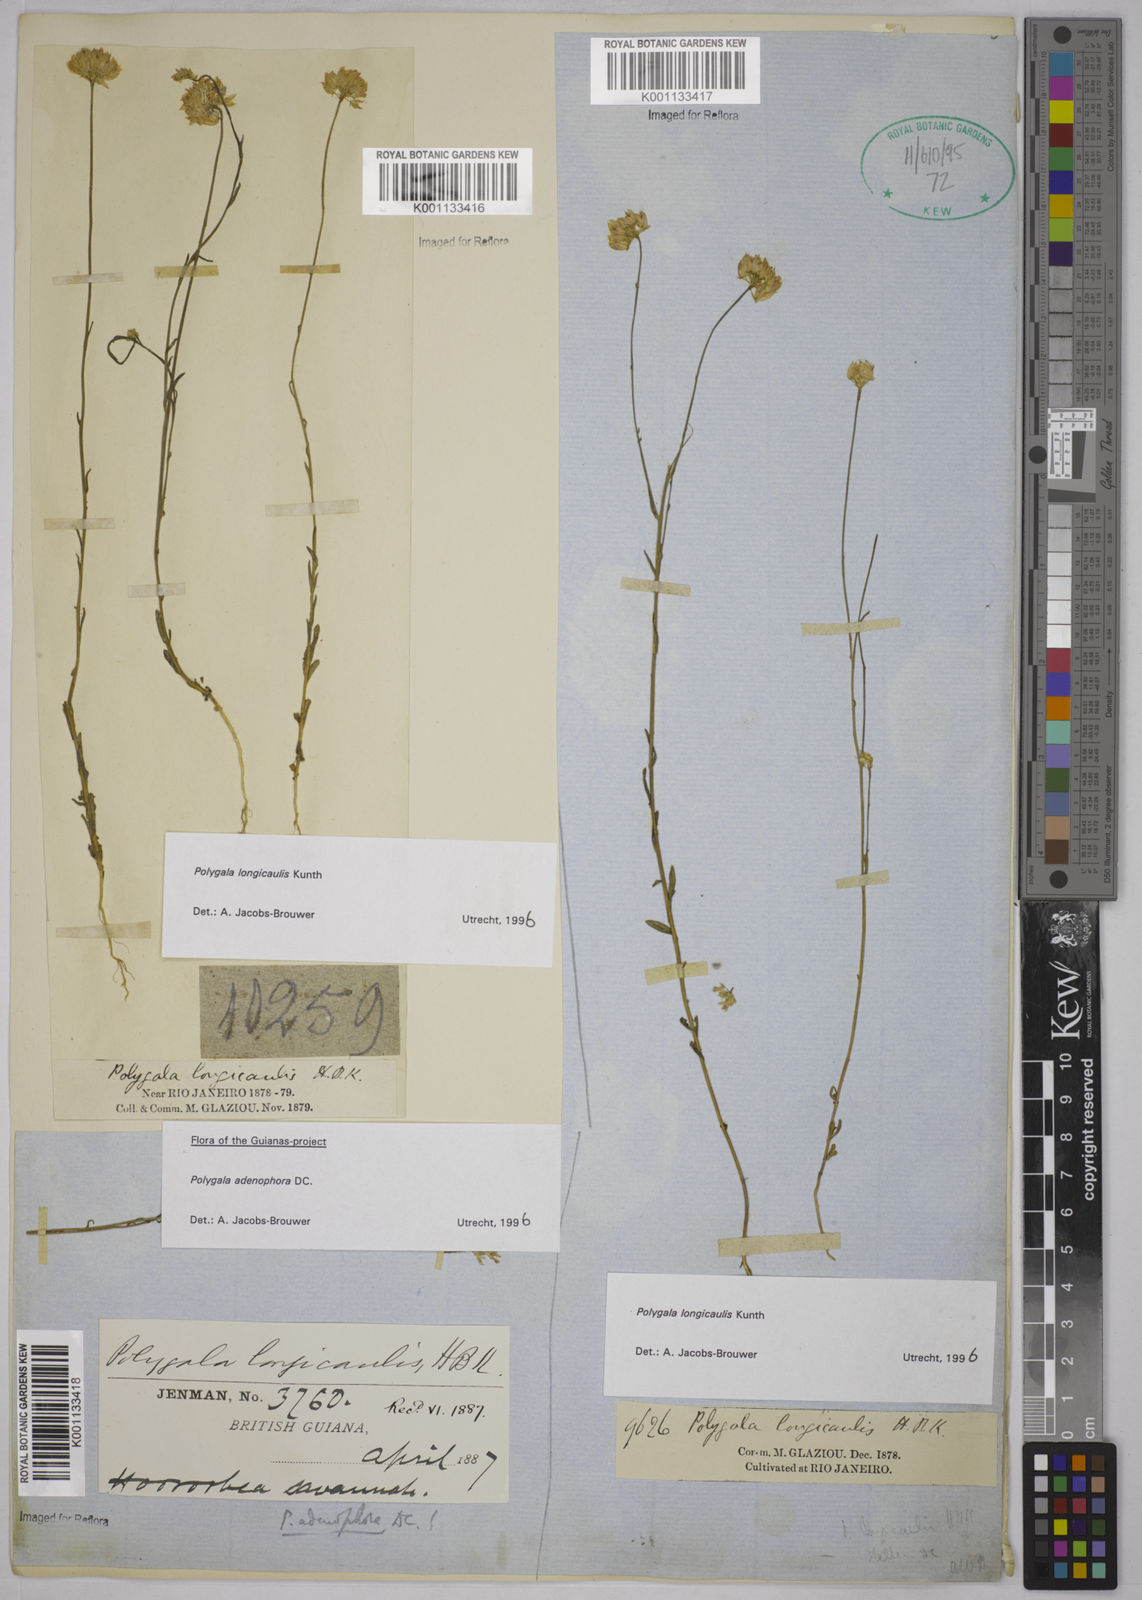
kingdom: Plantae
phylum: Tracheophyta
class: Magnoliopsida
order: Fabales
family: Polygalaceae
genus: Polygala
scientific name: Polygala longicaulis
